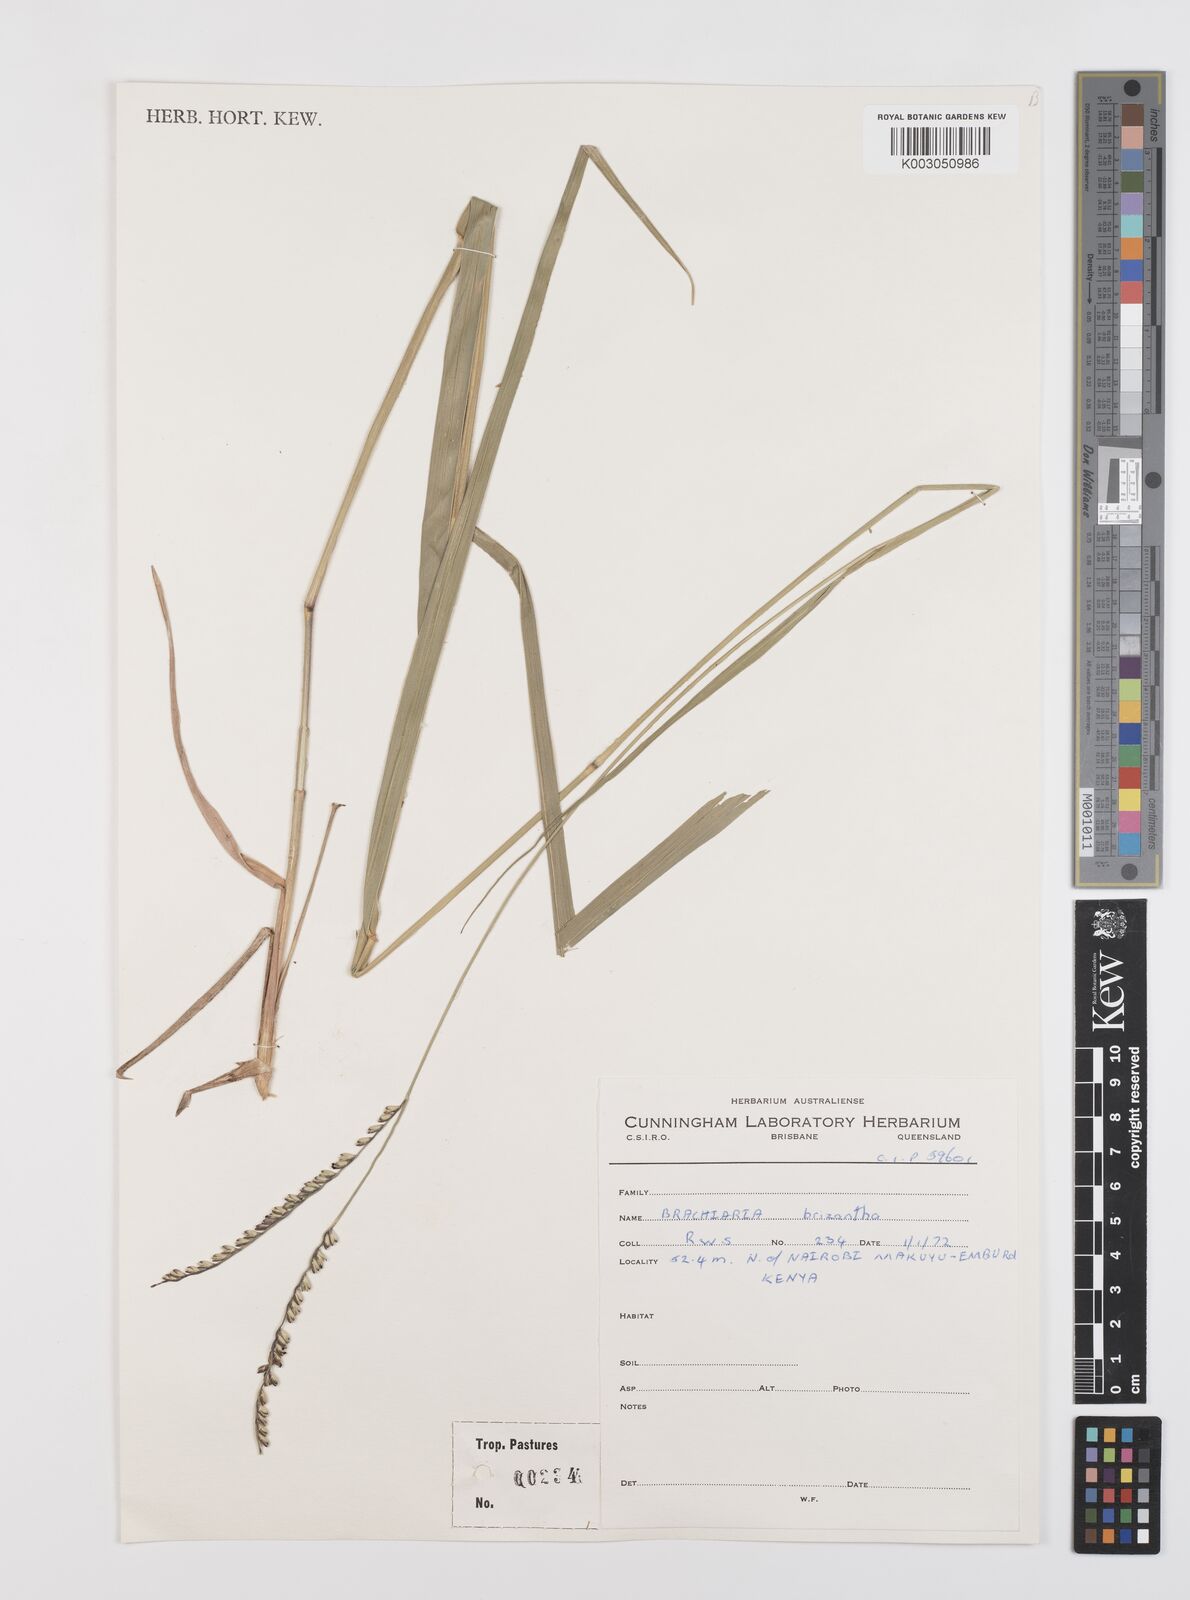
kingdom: Plantae
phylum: Tracheophyta
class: Liliopsida
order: Poales
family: Poaceae
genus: Urochloa
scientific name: Urochloa brizantha
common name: Palisade signalgrass
